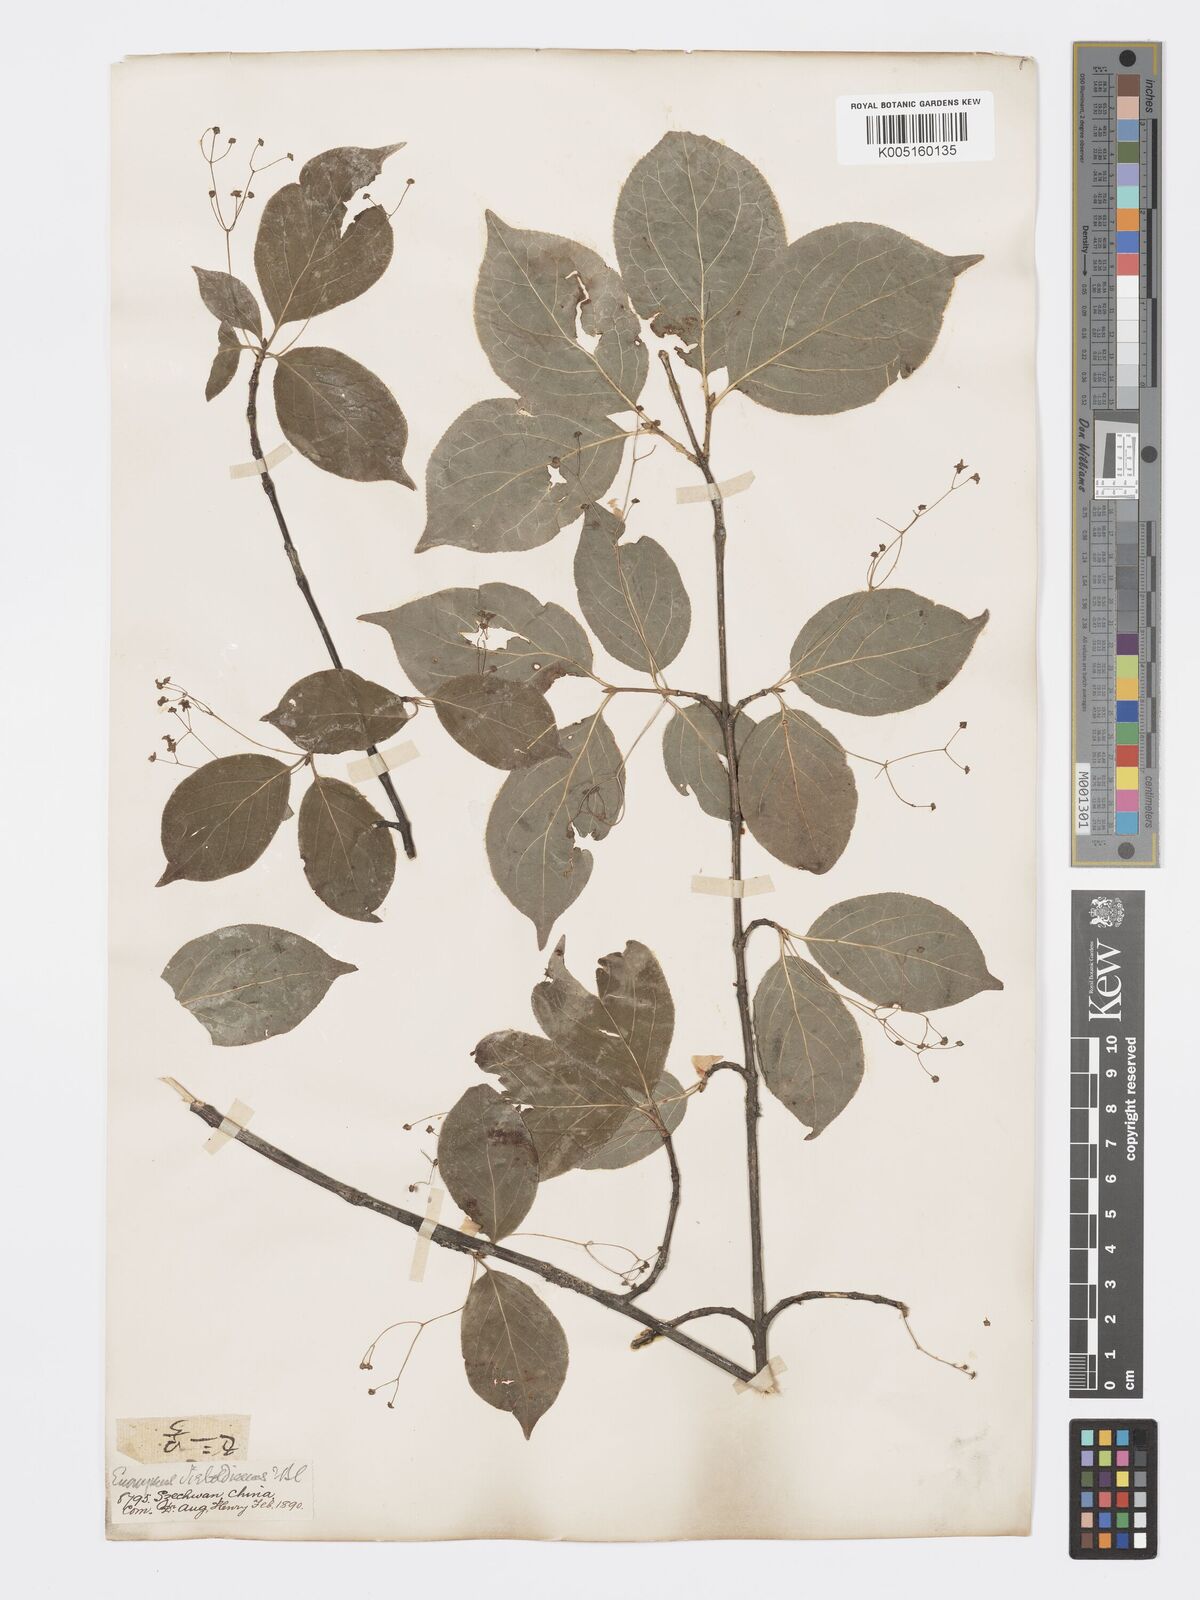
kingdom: Plantae
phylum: Tracheophyta
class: Magnoliopsida
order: Celastrales
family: Celastraceae
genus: Euonymus
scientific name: Euonymus frigidus
